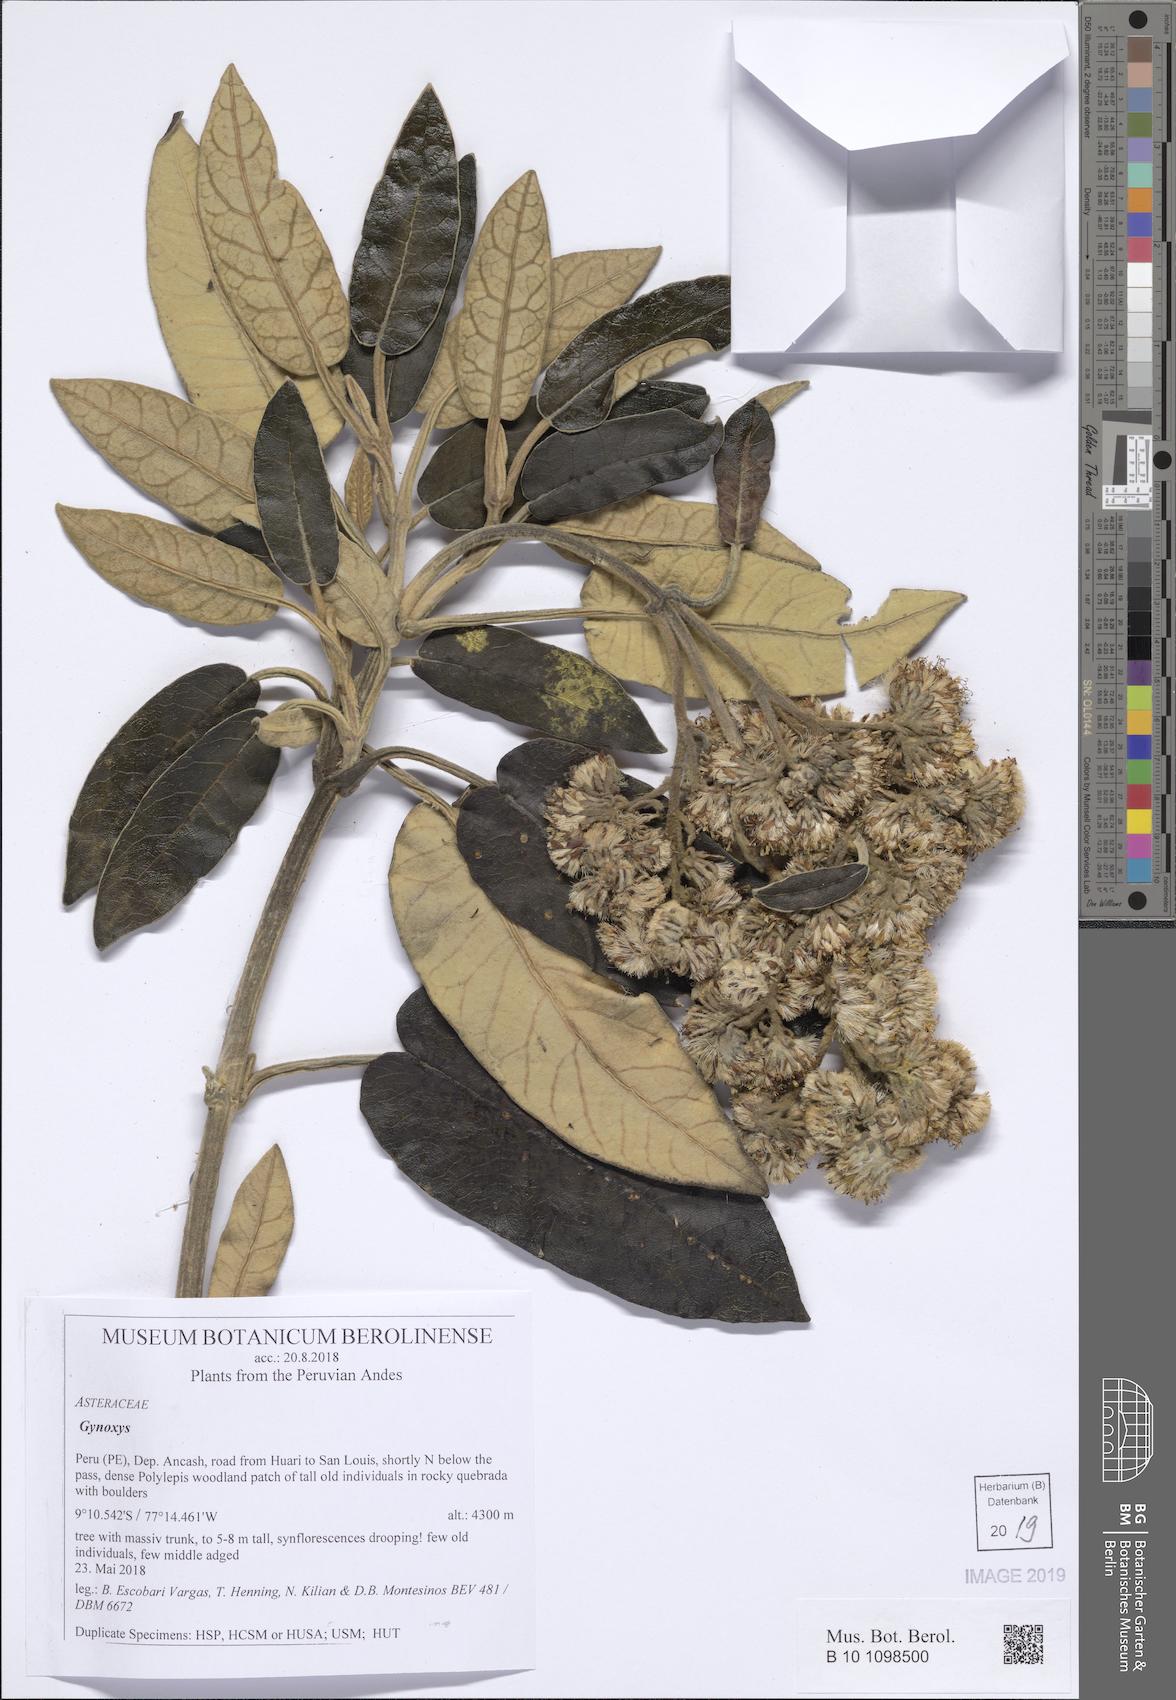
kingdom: Plantae
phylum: Tracheophyta
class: Magnoliopsida
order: Asterales
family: Asteraceae
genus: Gynoxys
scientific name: Gynoxys
